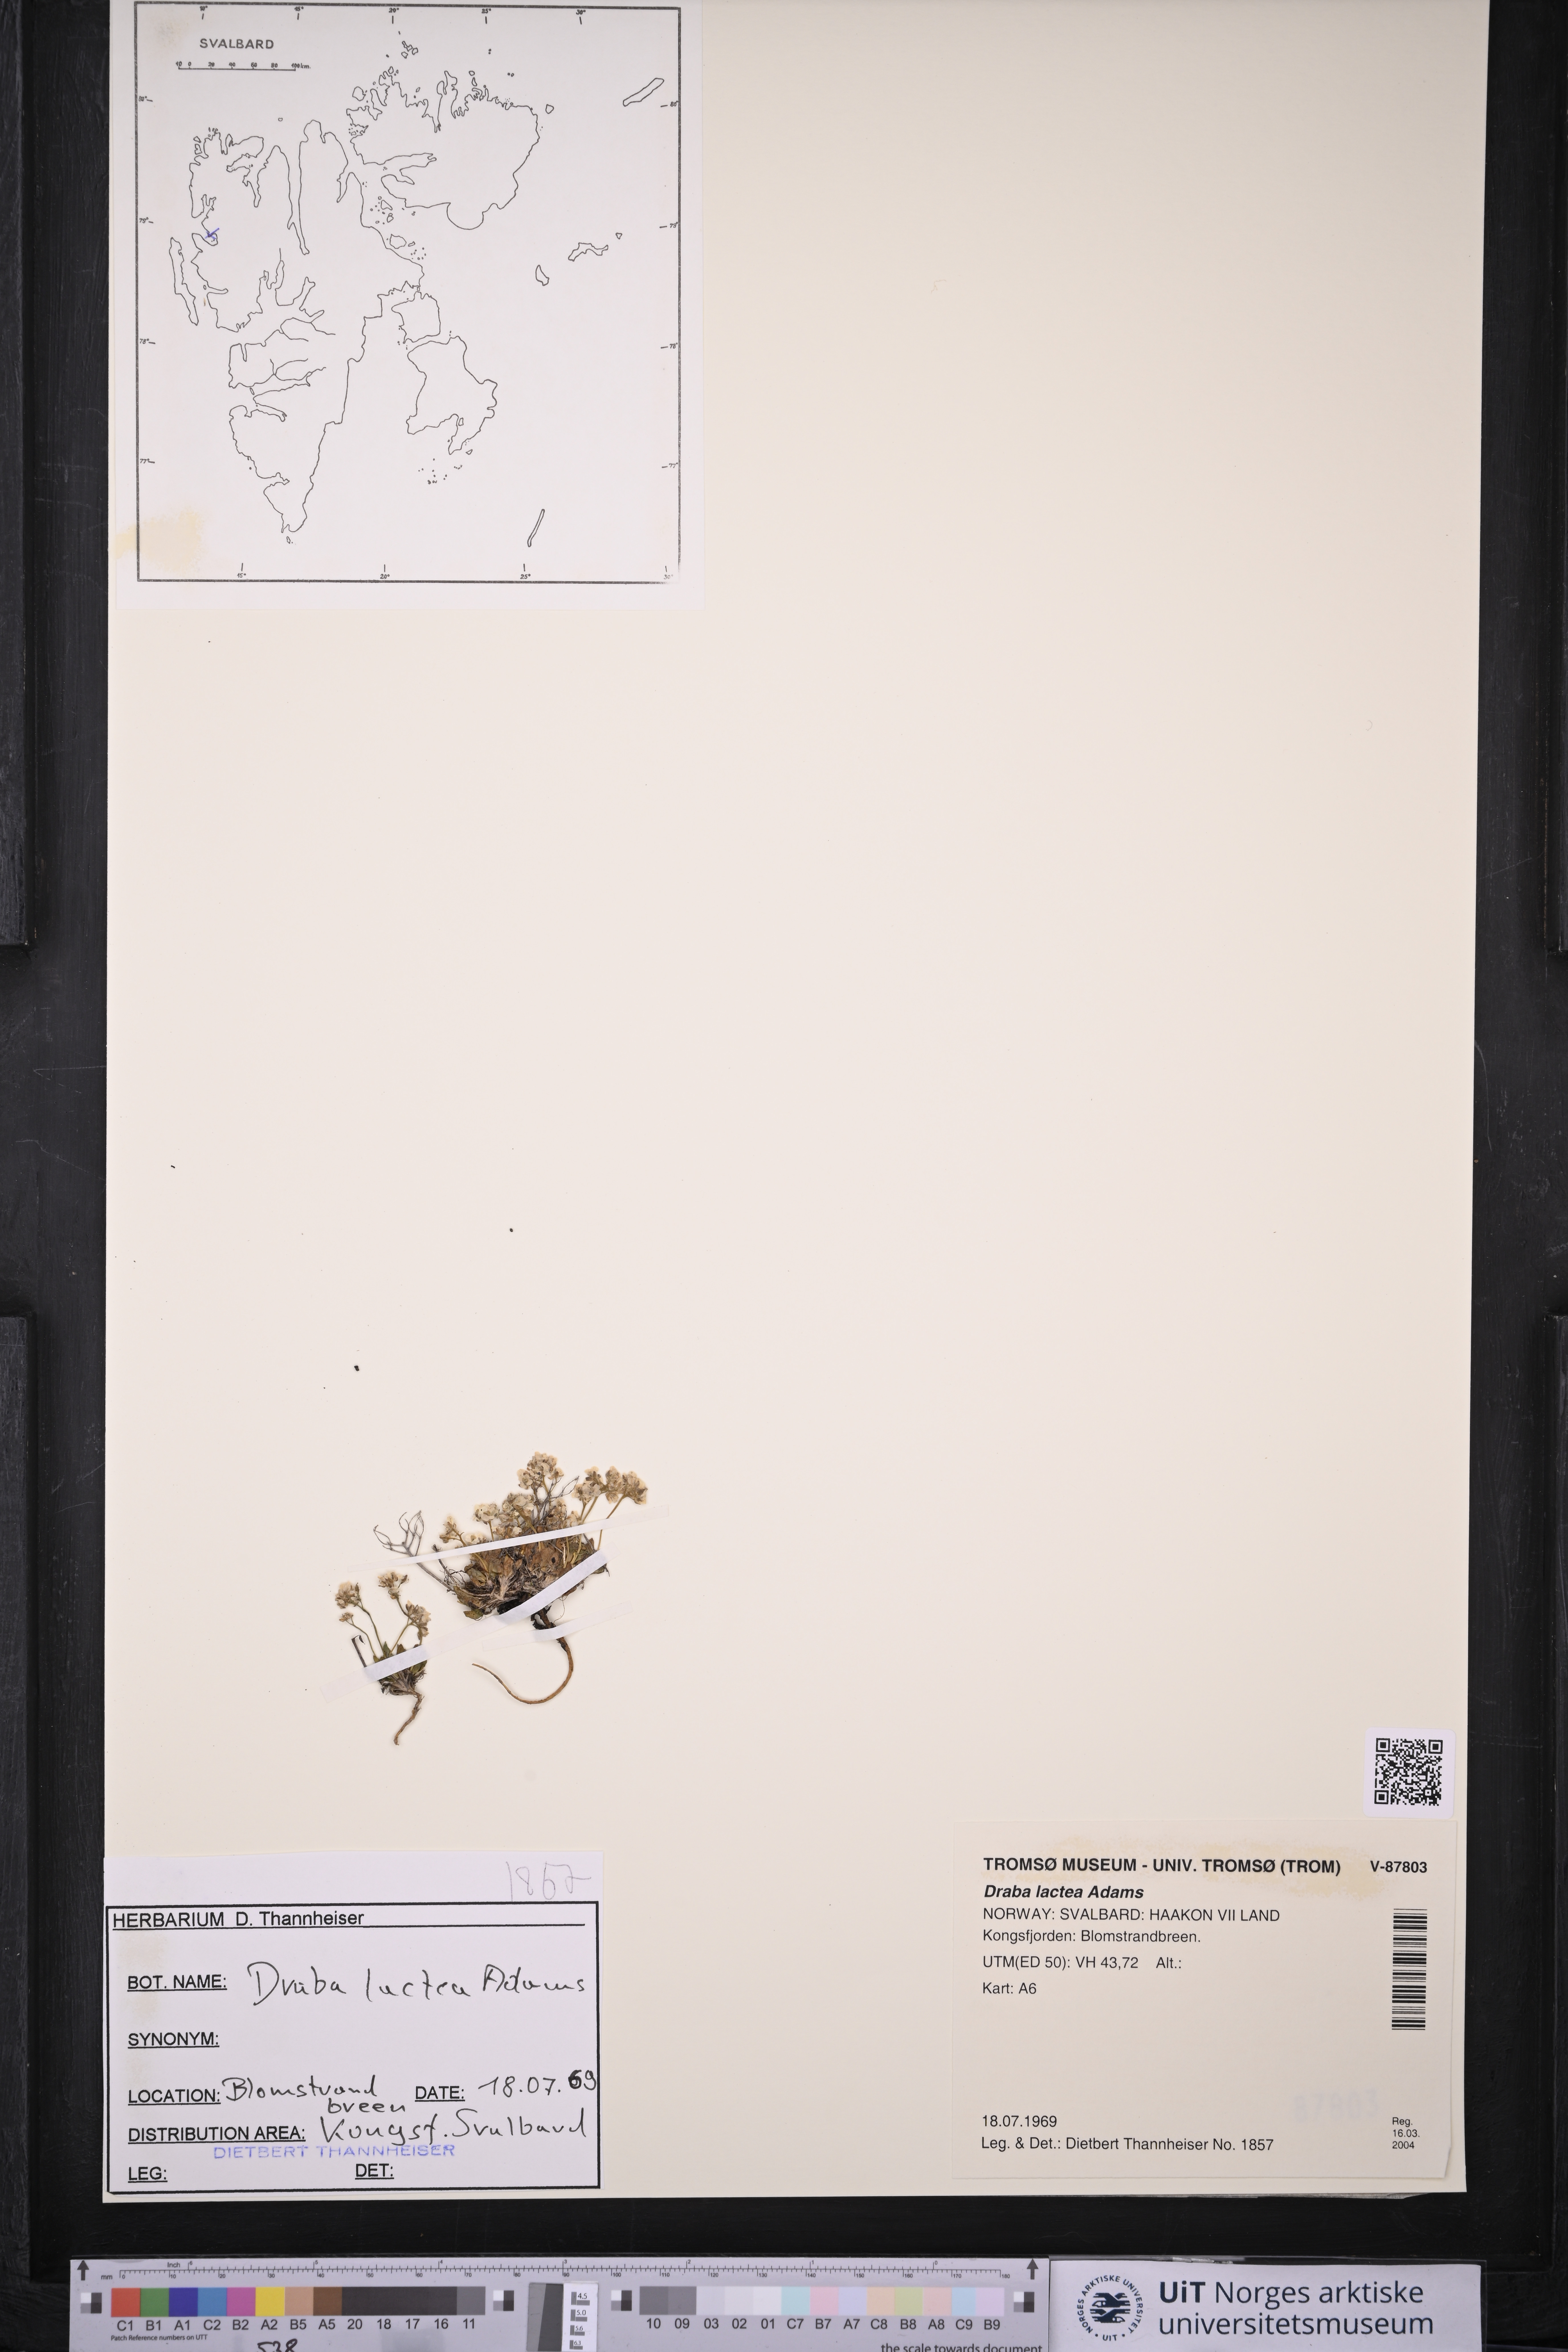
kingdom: Plantae
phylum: Tracheophyta
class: Magnoliopsida
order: Brassicales
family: Brassicaceae
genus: Draba
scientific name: Draba lactea
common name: Milky draba
